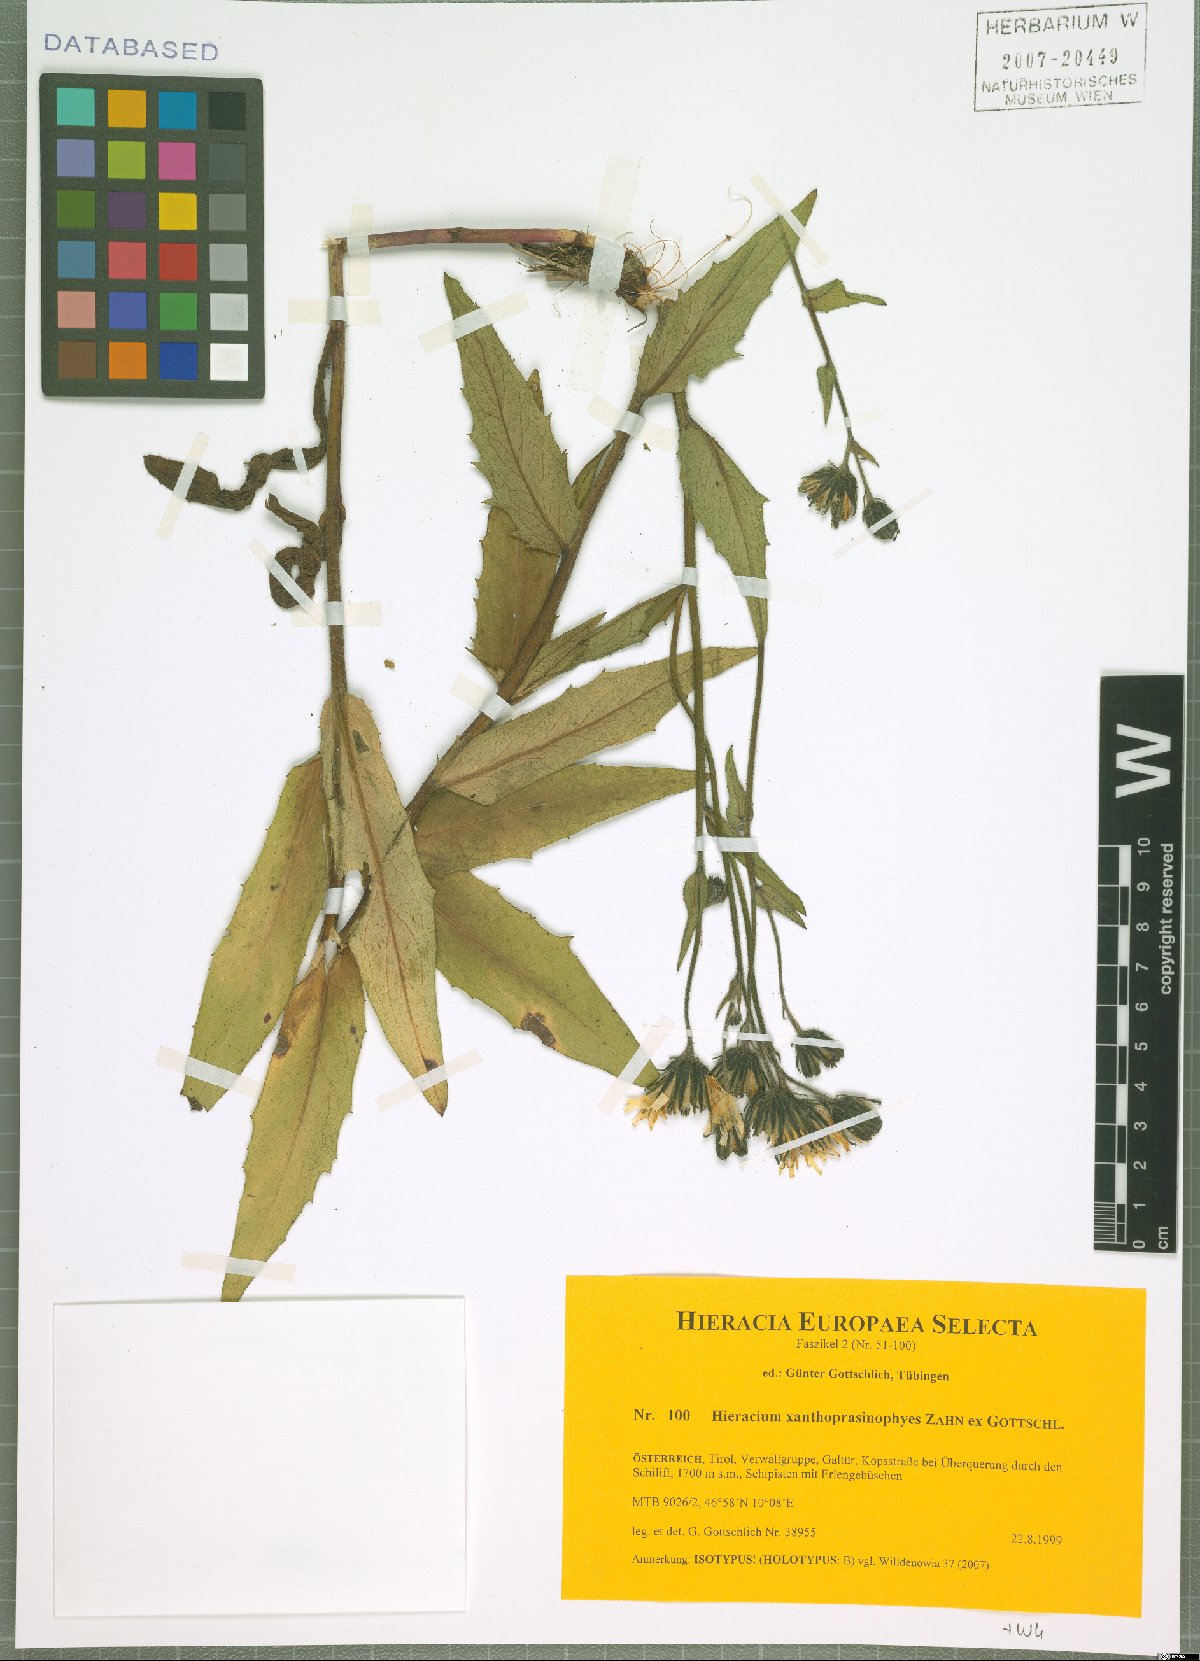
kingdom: Plantae
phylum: Tracheophyta
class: Magnoliopsida
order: Asterales
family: Asteraceae
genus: Hieracium
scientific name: Hieracium xanthoprasinophyes
